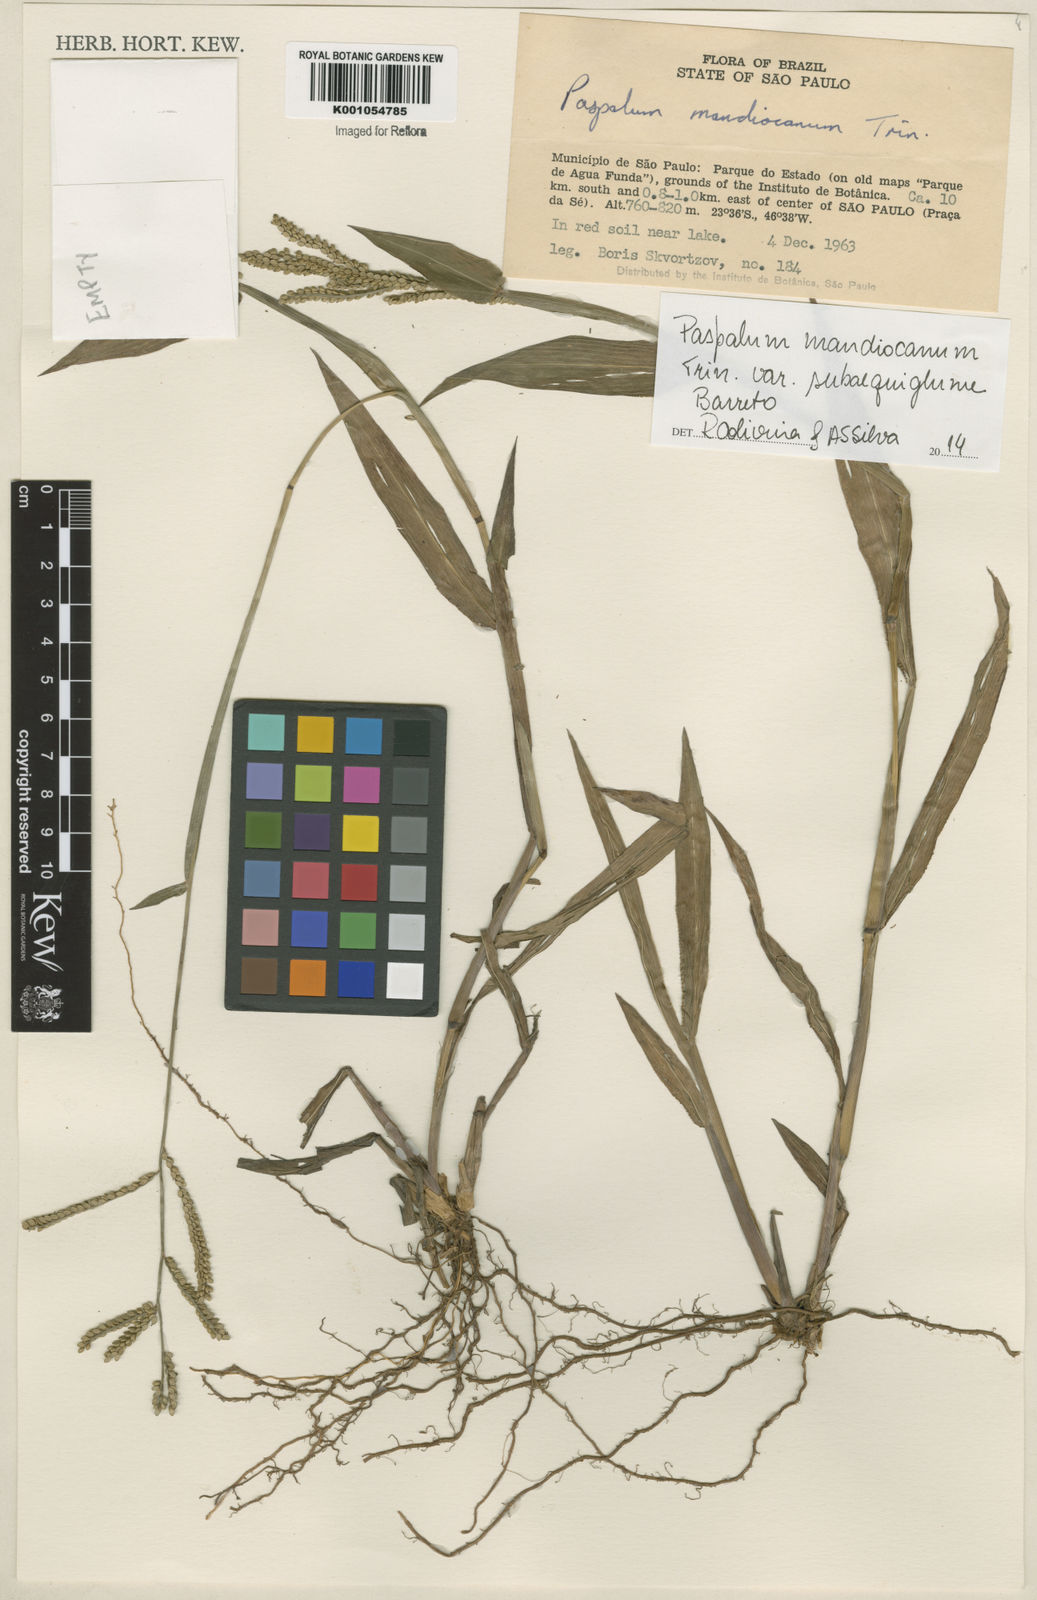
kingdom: Plantae
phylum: Tracheophyta
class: Liliopsida
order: Poales
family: Poaceae
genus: Paspalum
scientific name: Paspalum mandiocanum
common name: Paspalum
